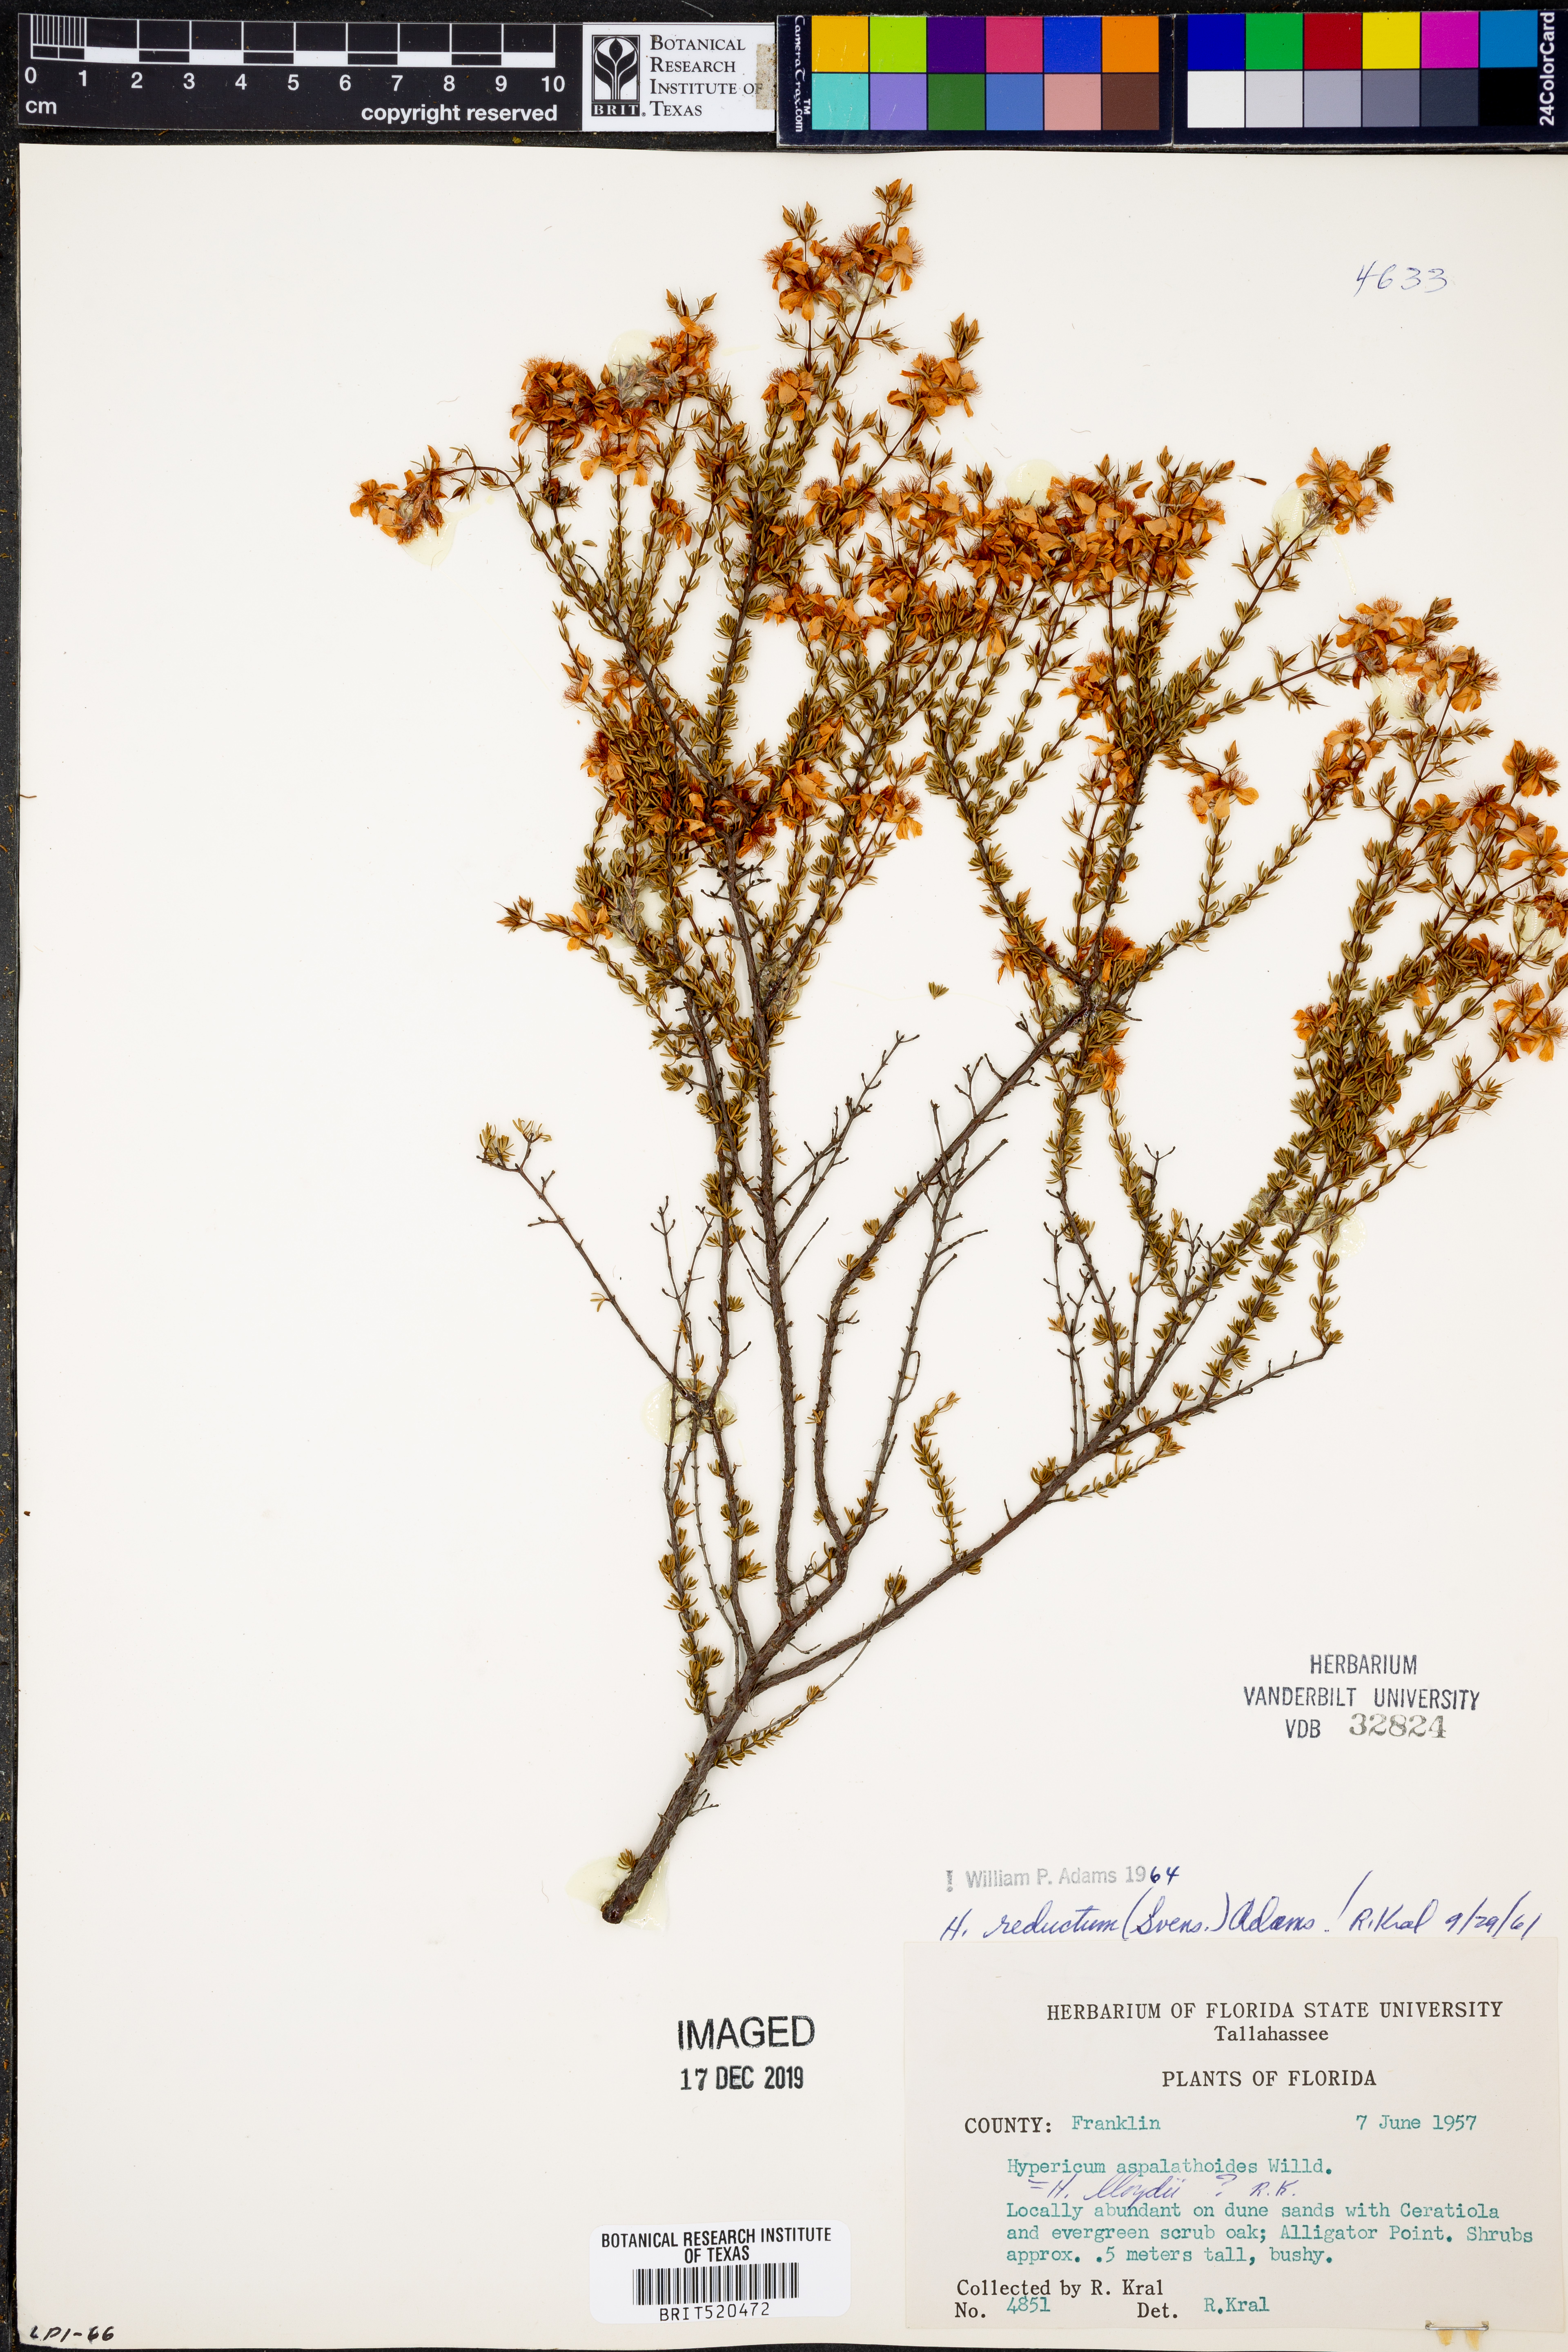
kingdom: Plantae
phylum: Tracheophyta
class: Magnoliopsida
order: Malpighiales
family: Hypericaceae
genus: Hypericum
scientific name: Hypericum tenuifolium
